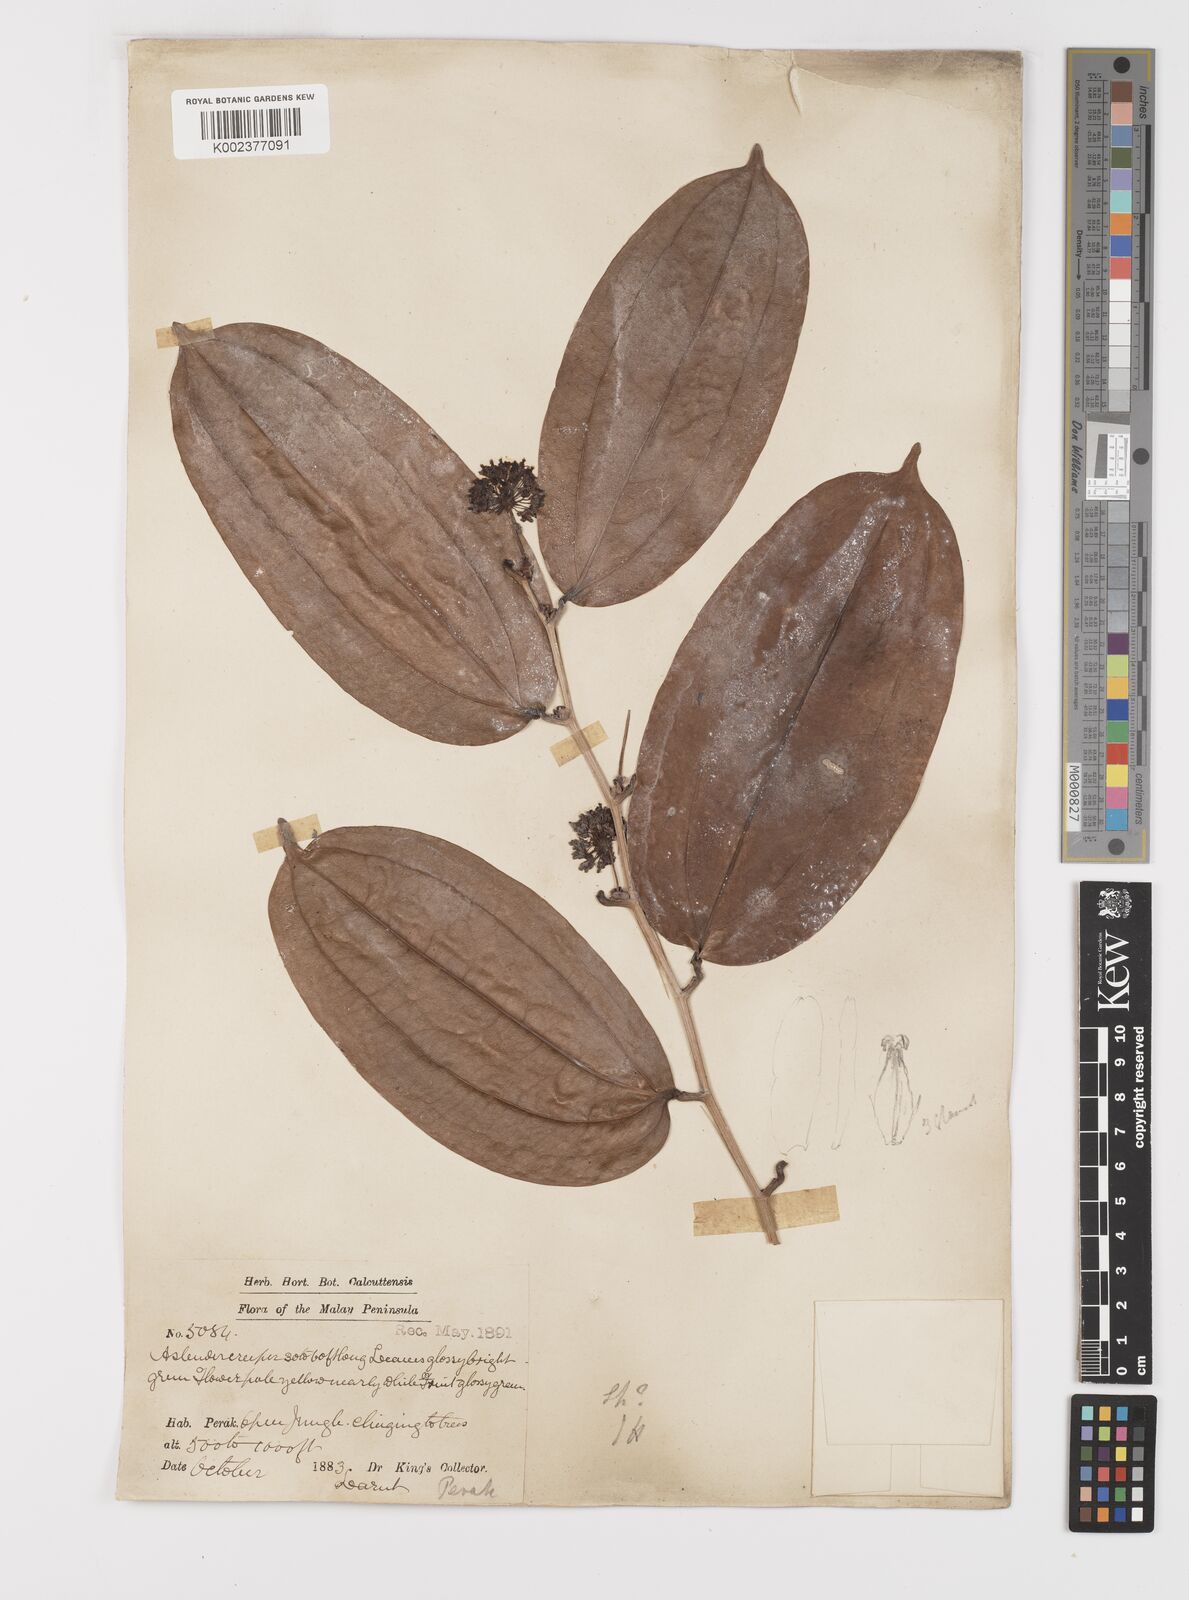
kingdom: Plantae
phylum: Tracheophyta
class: Liliopsida
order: Liliales
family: Smilacaceae
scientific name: Smilacaceae
